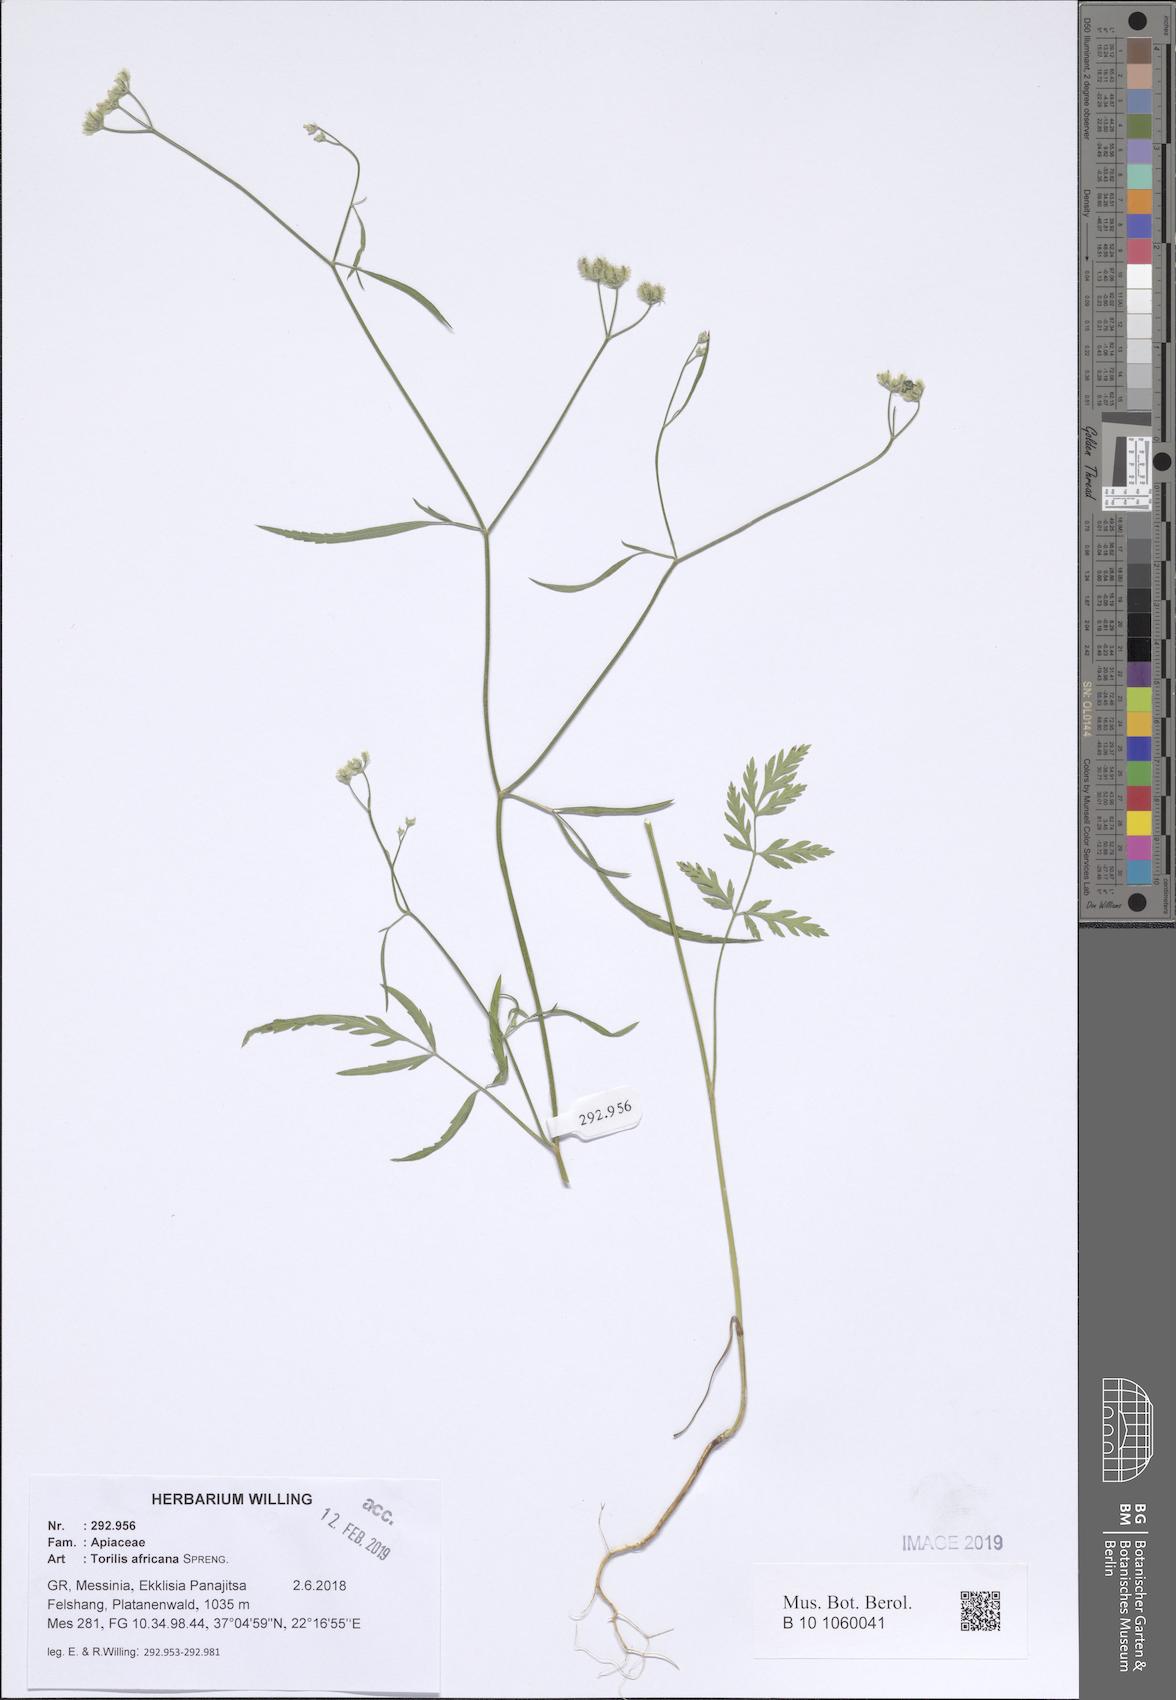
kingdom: Plantae
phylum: Tracheophyta
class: Magnoliopsida
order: Apiales
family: Apiaceae
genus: Torilis
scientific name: Torilis africana
